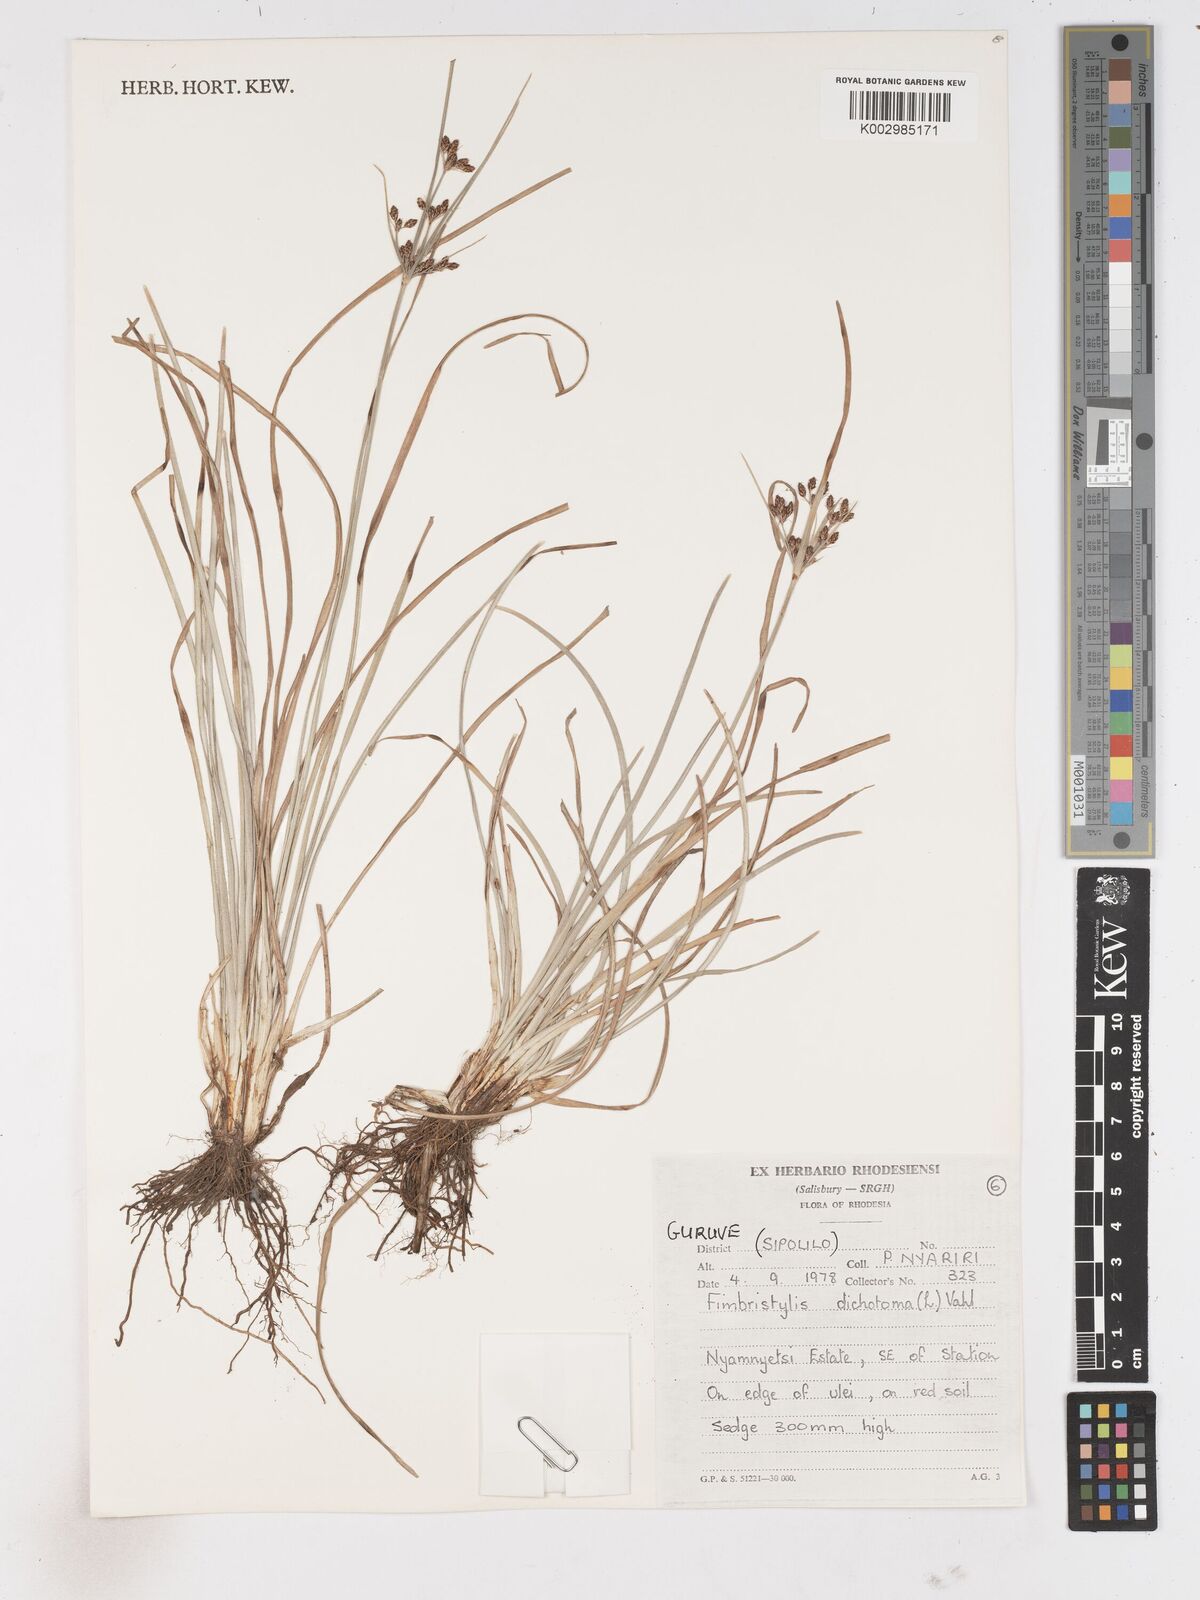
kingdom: Plantae
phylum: Tracheophyta
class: Liliopsida
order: Poales
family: Cyperaceae
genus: Fimbristylis
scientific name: Fimbristylis dichotoma
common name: Forked fimbry
